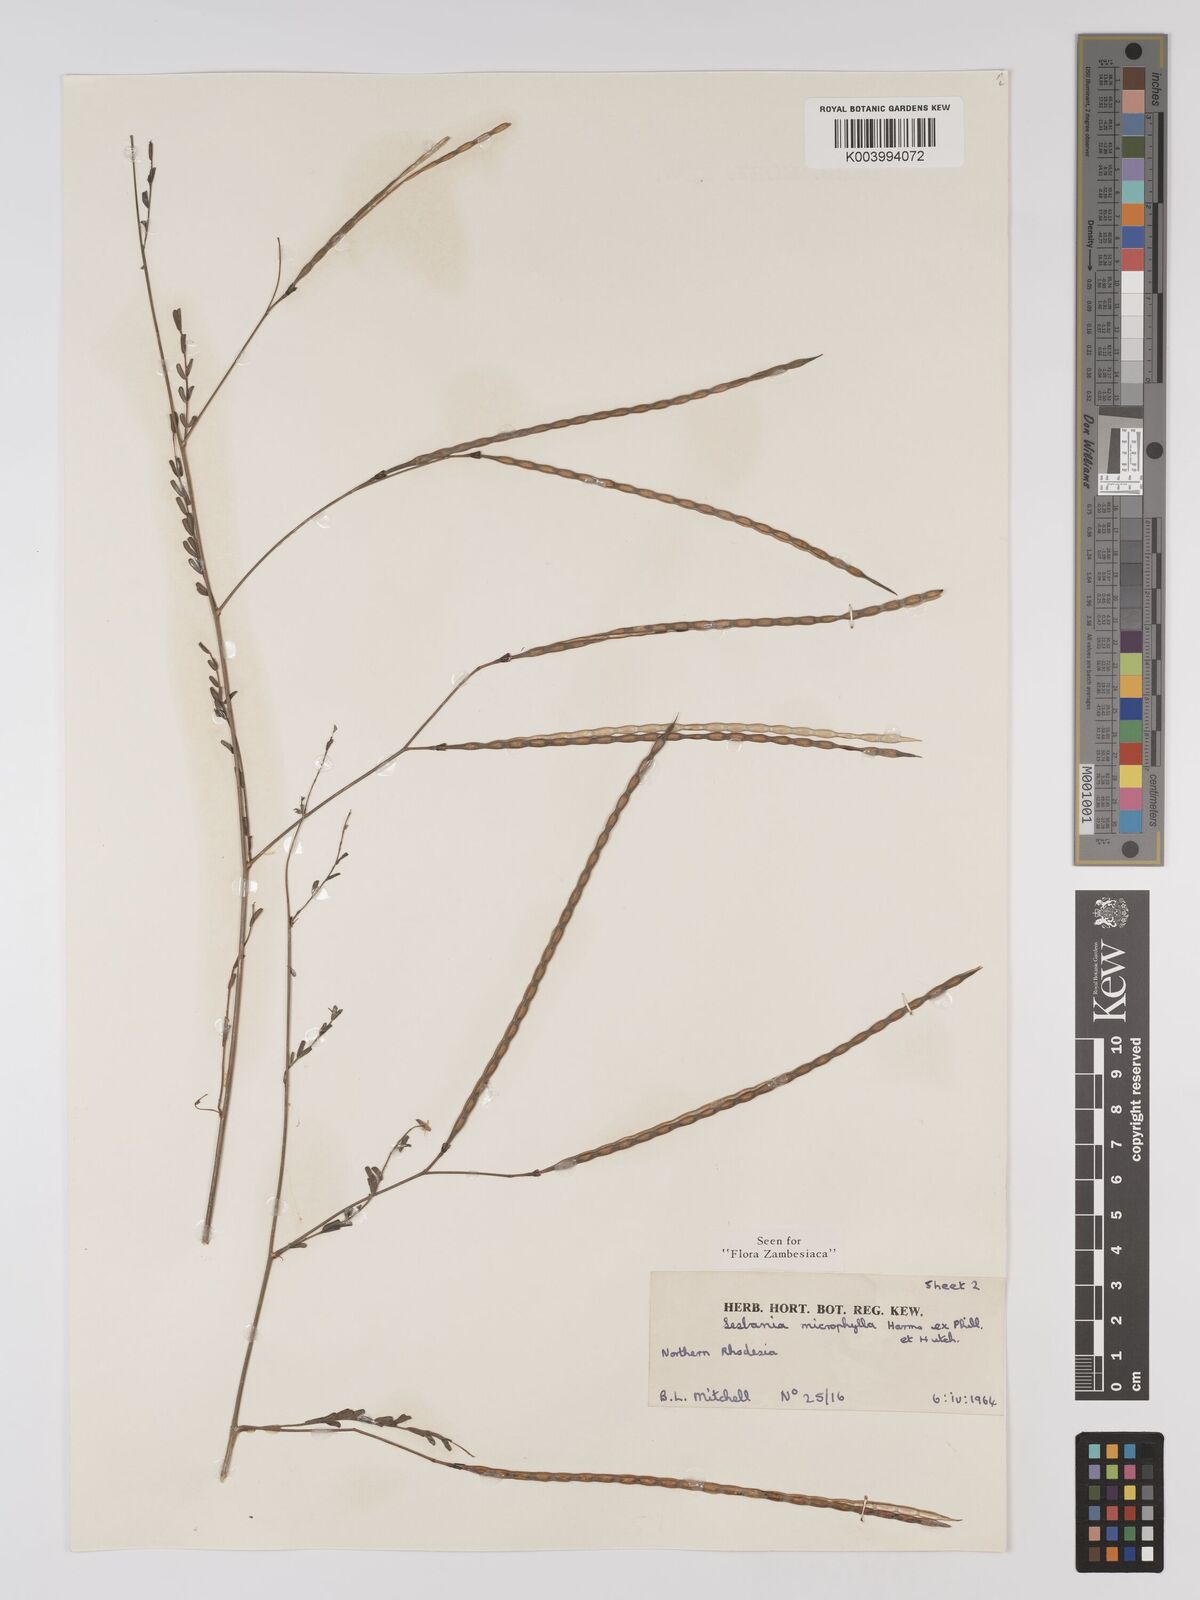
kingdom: Plantae
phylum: Tracheophyta
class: Magnoliopsida
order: Fabales
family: Fabaceae
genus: Sesbania
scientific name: Sesbania microphylla
